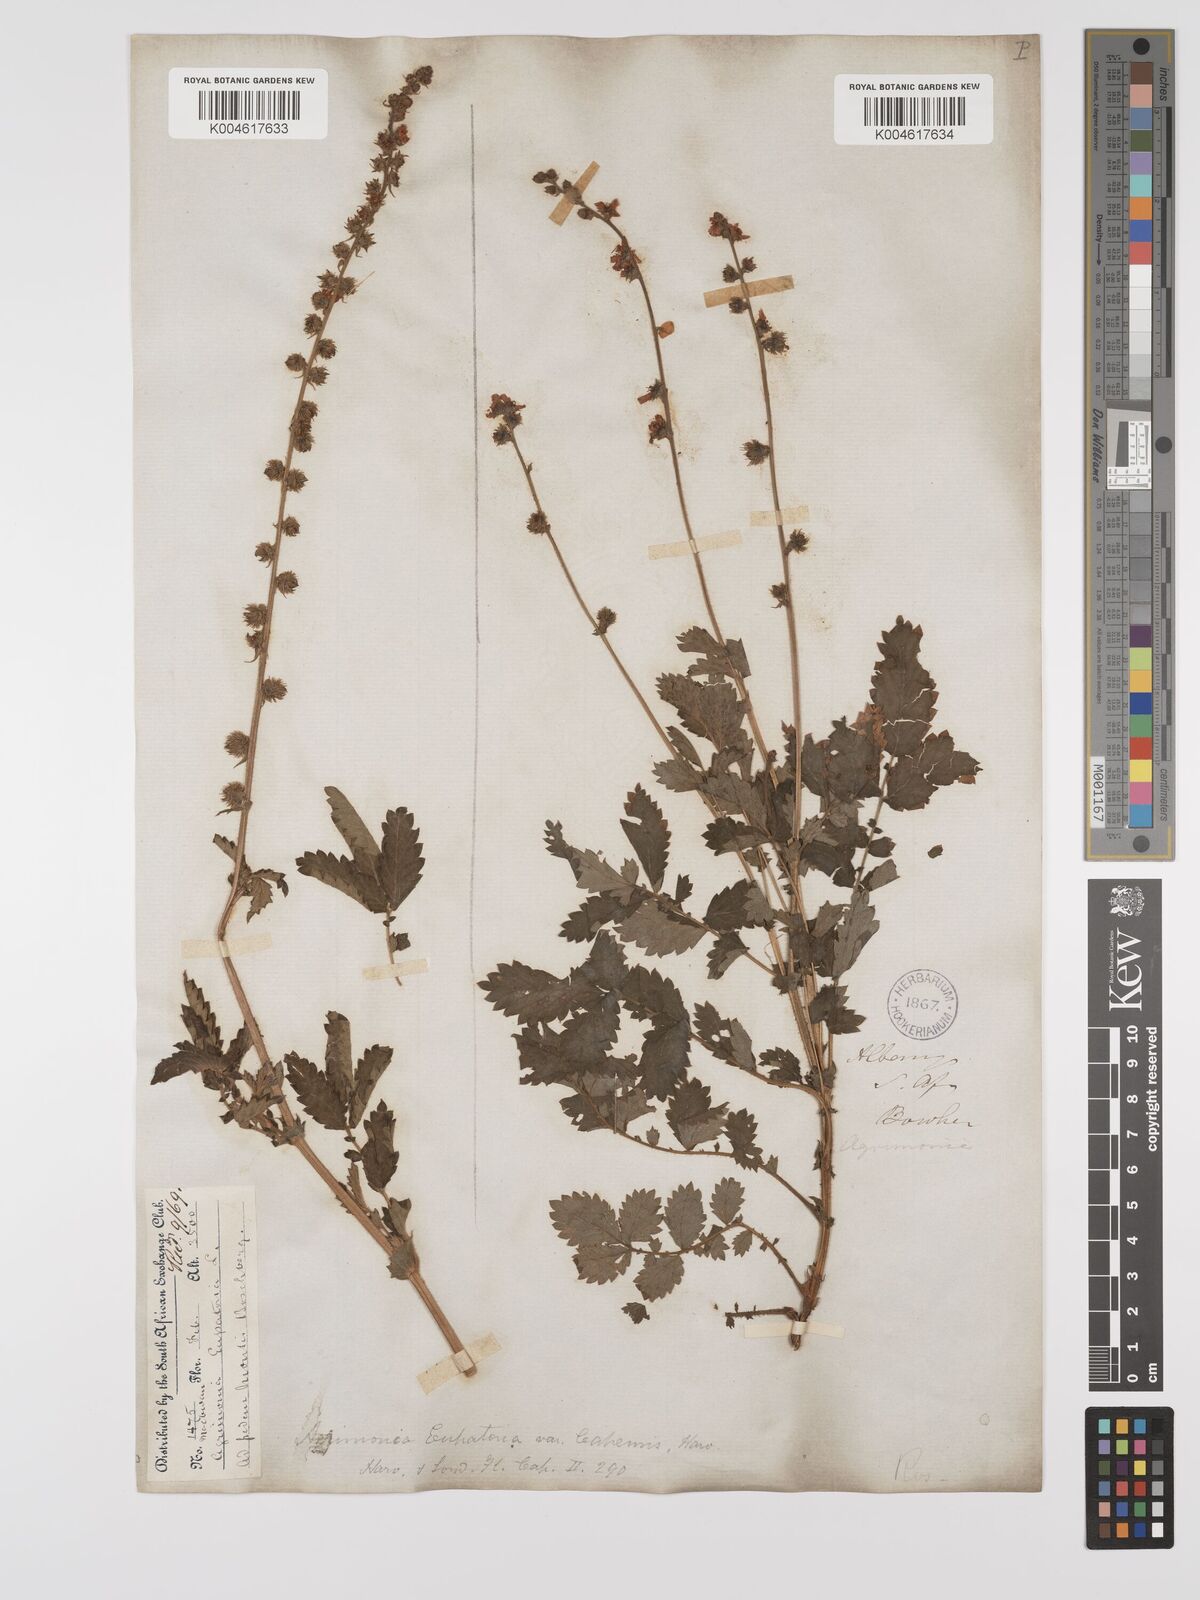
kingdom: Plantae
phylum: Tracheophyta
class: Magnoliopsida
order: Rosales
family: Rosaceae
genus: Agrimonia
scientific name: Agrimonia eupatoria
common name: Agrimony
